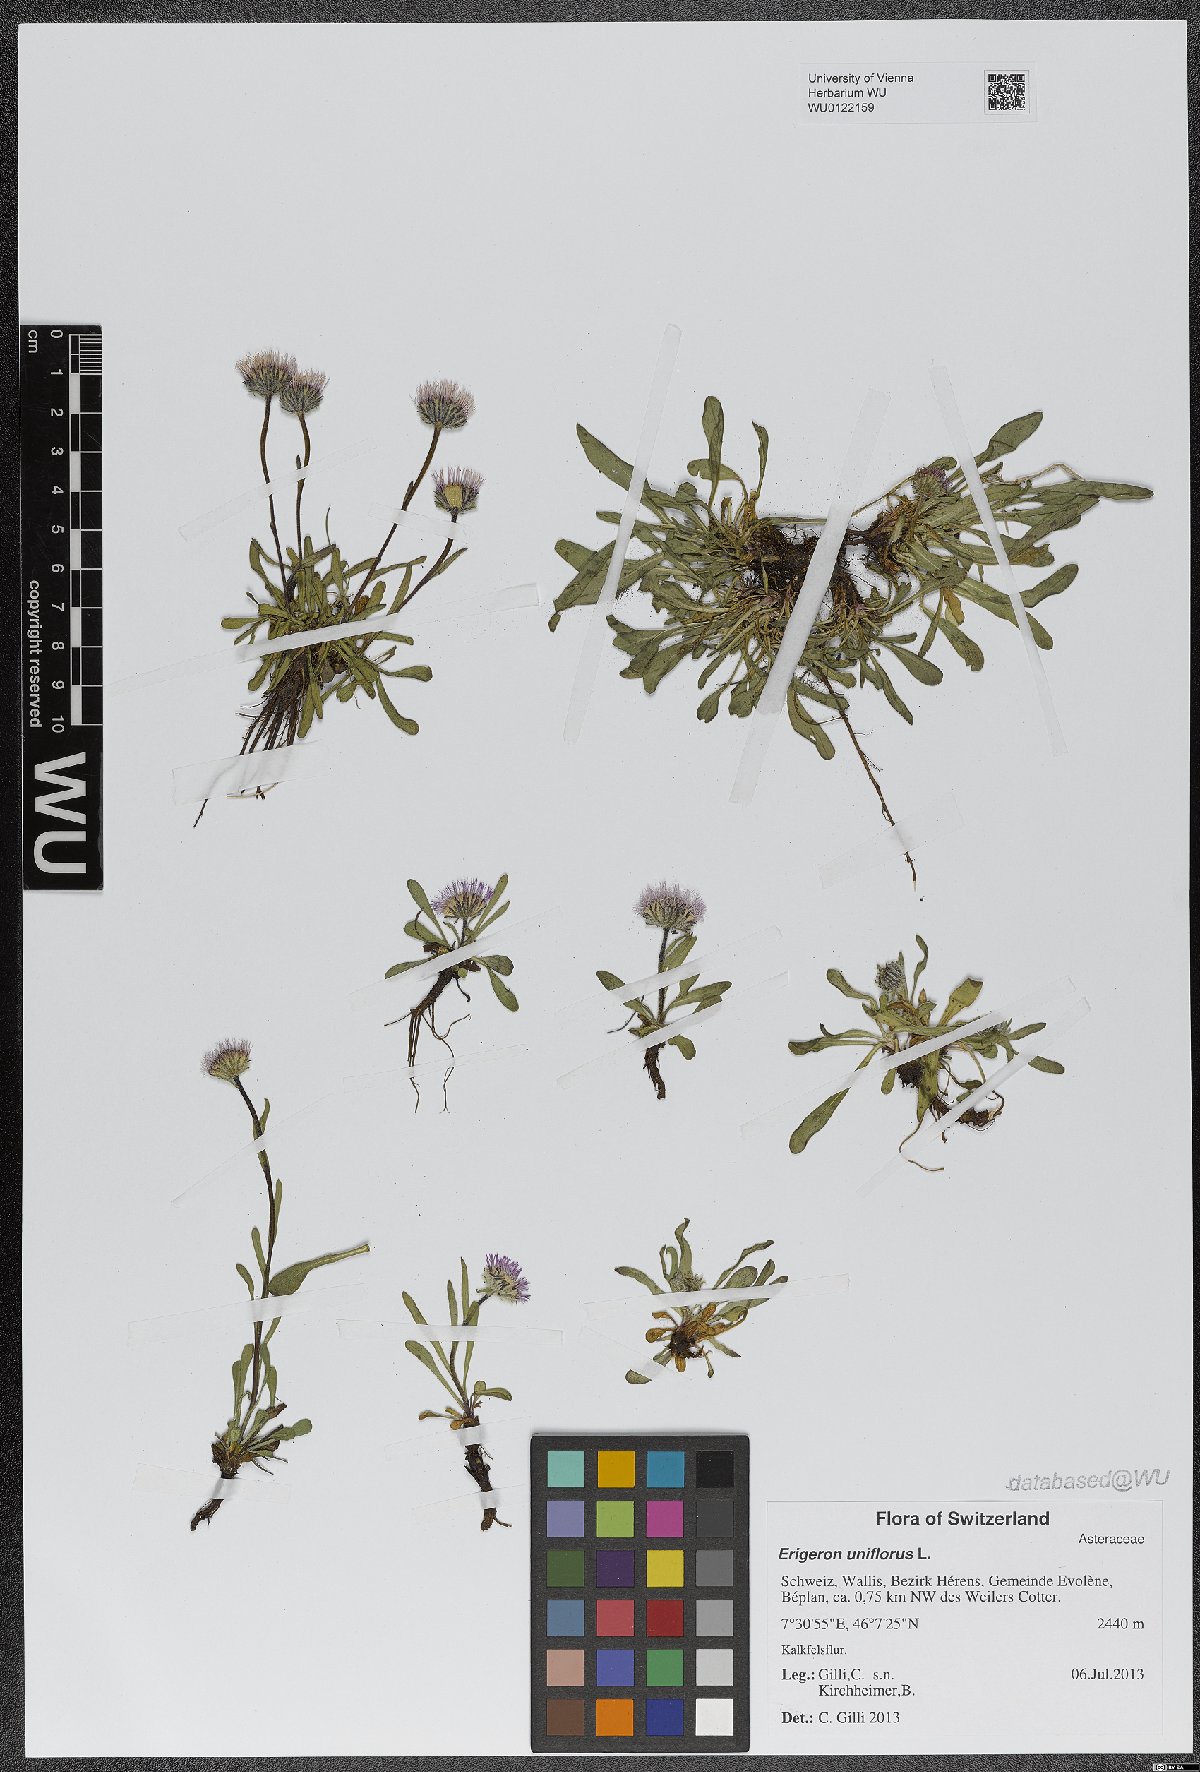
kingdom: Plantae
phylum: Tracheophyta
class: Magnoliopsida
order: Asterales
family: Asteraceae
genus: Erigeron
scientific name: Erigeron uniflorus
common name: Northern daisy
